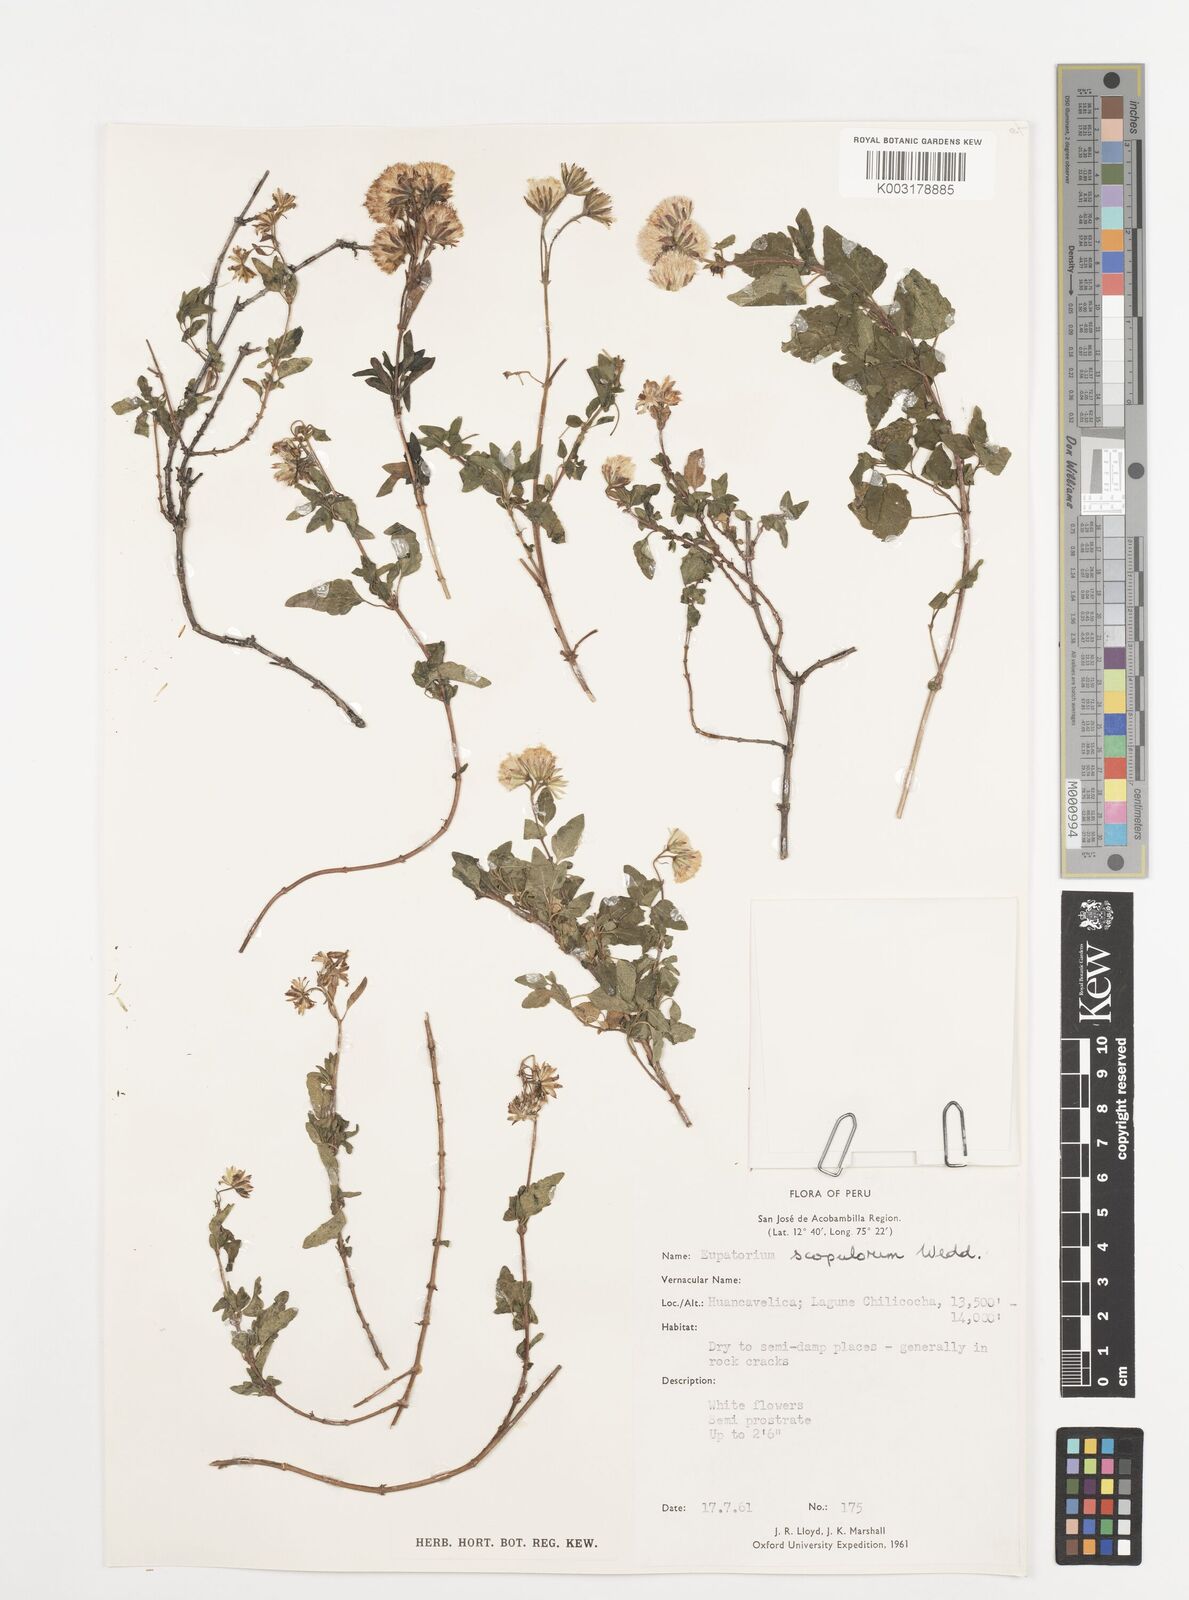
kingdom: Plantae
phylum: Tracheophyta
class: Magnoliopsida
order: Asterales
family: Asteraceae
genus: Ageratina
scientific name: Ageratina scopulorum
